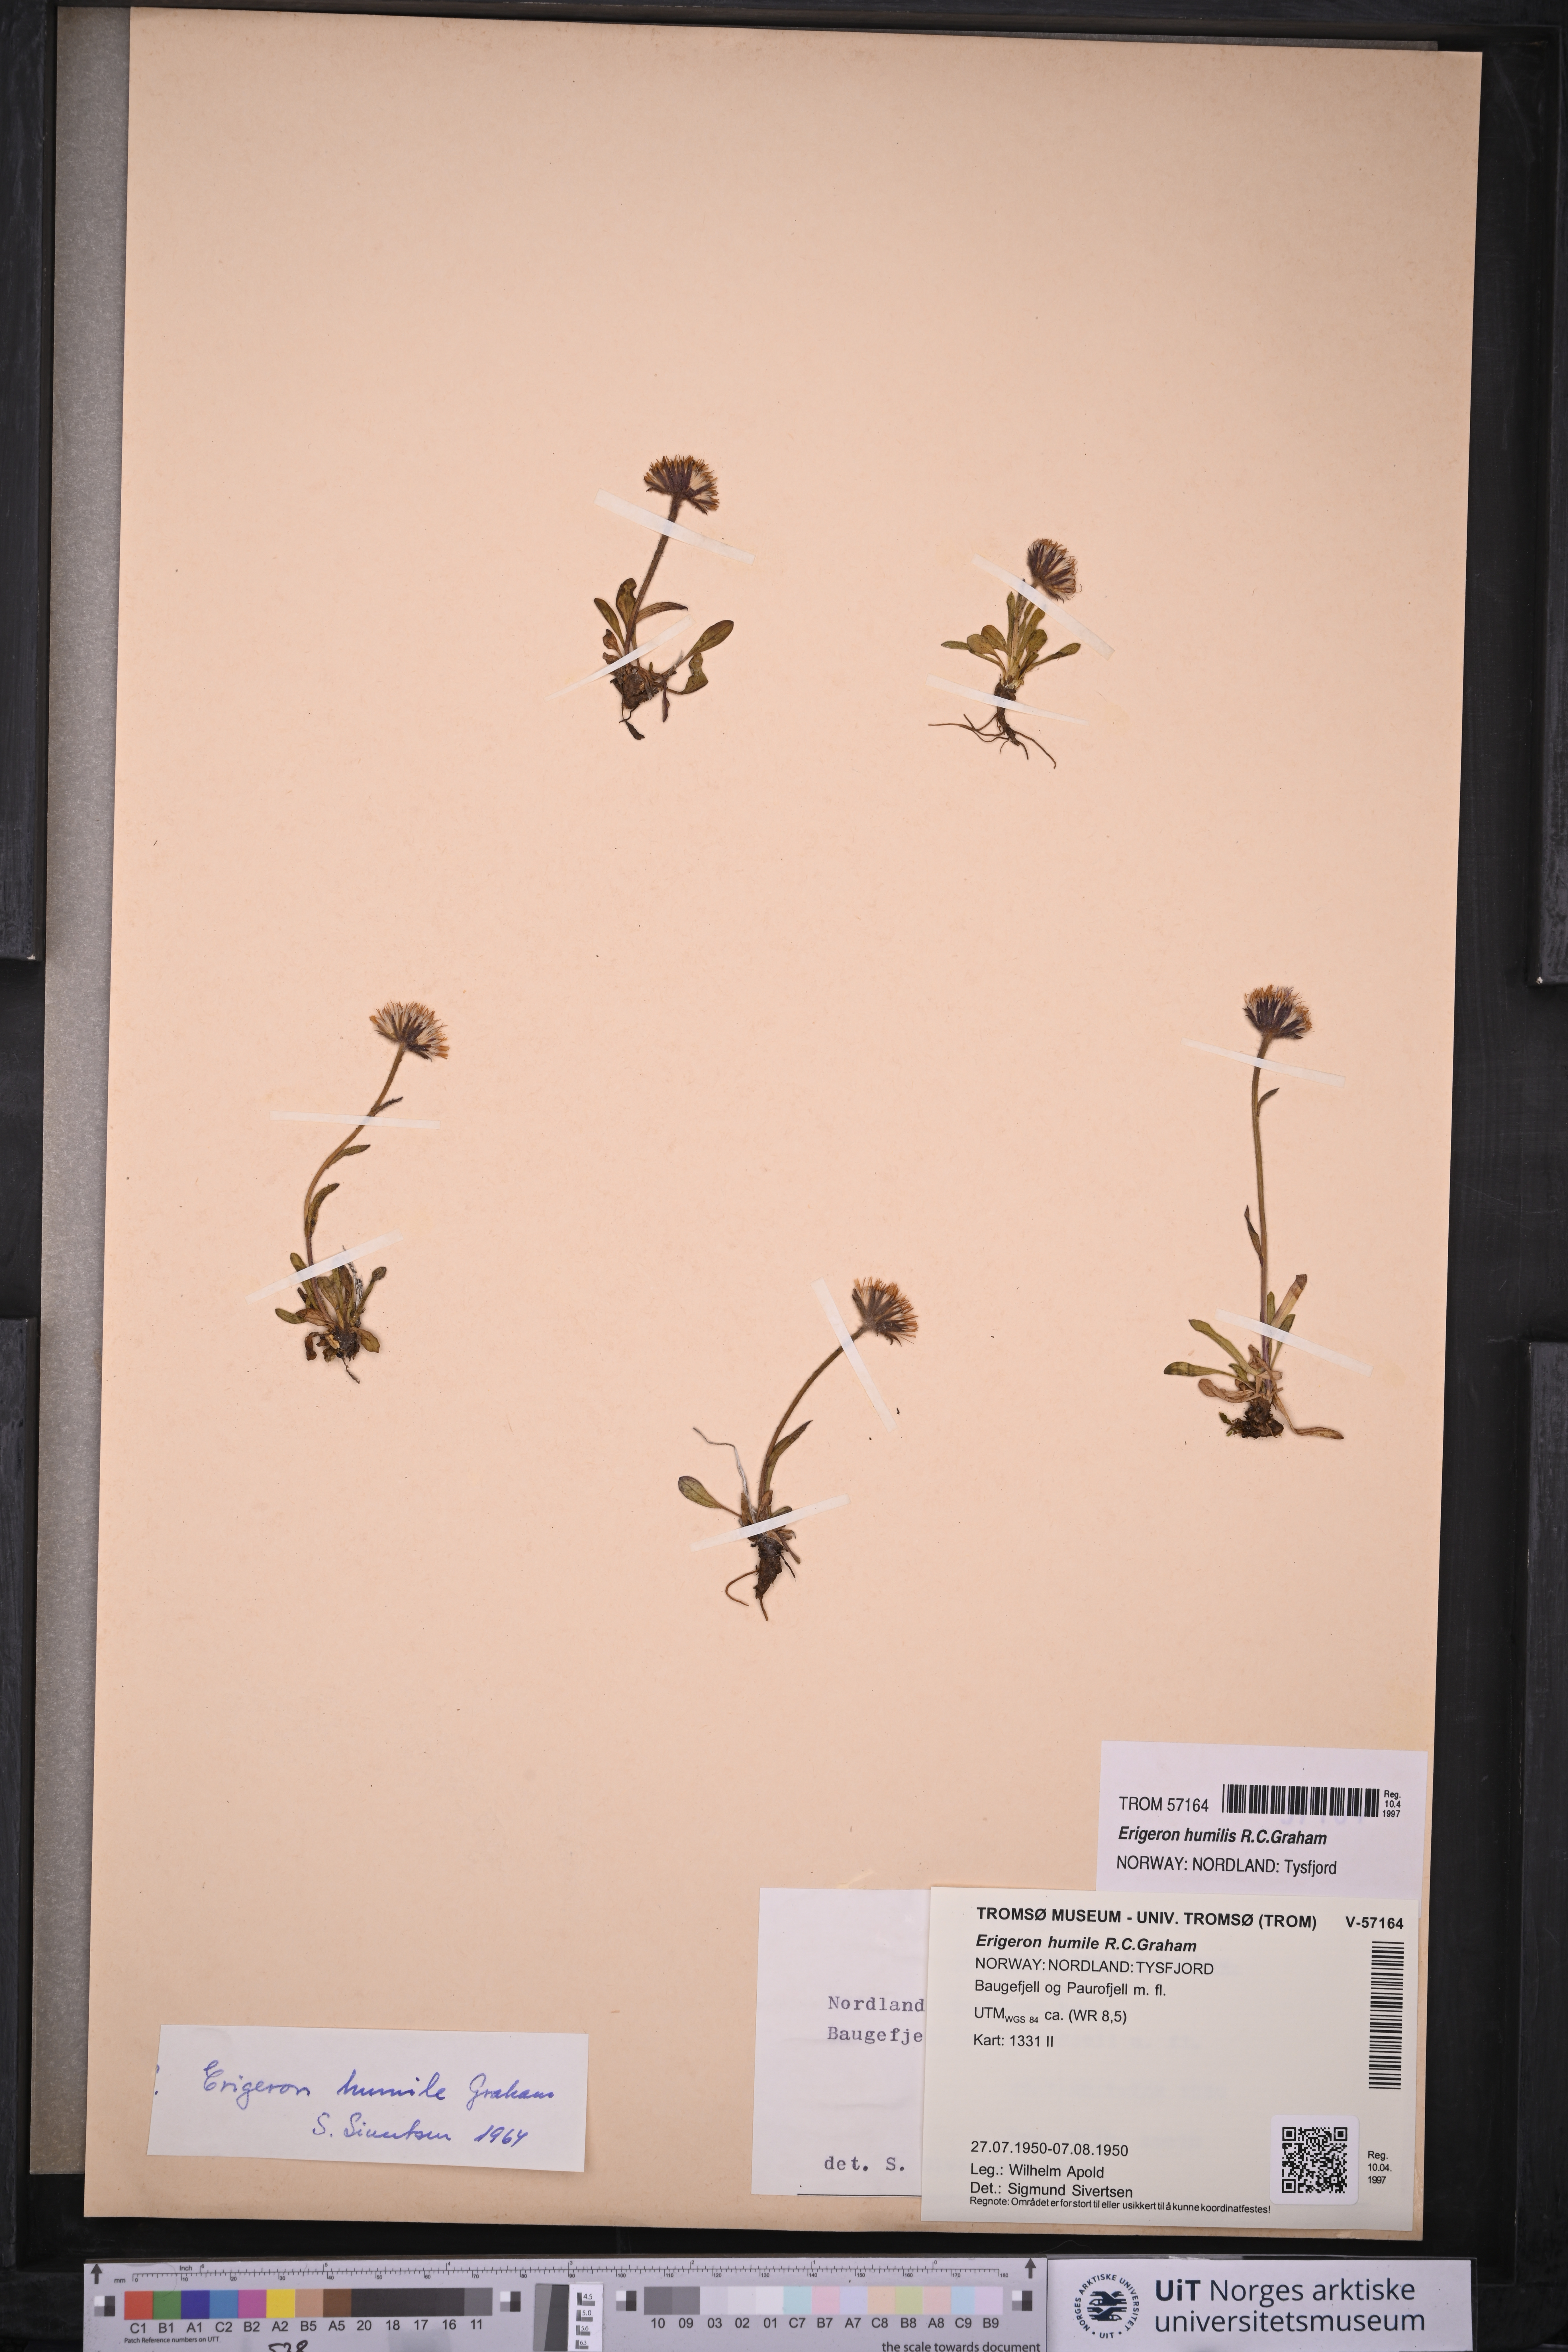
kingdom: Plantae
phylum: Tracheophyta
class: Magnoliopsida
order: Asterales
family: Asteraceae
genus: Erigeron
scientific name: Erigeron humilis
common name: Arctic-alpine fleabane
